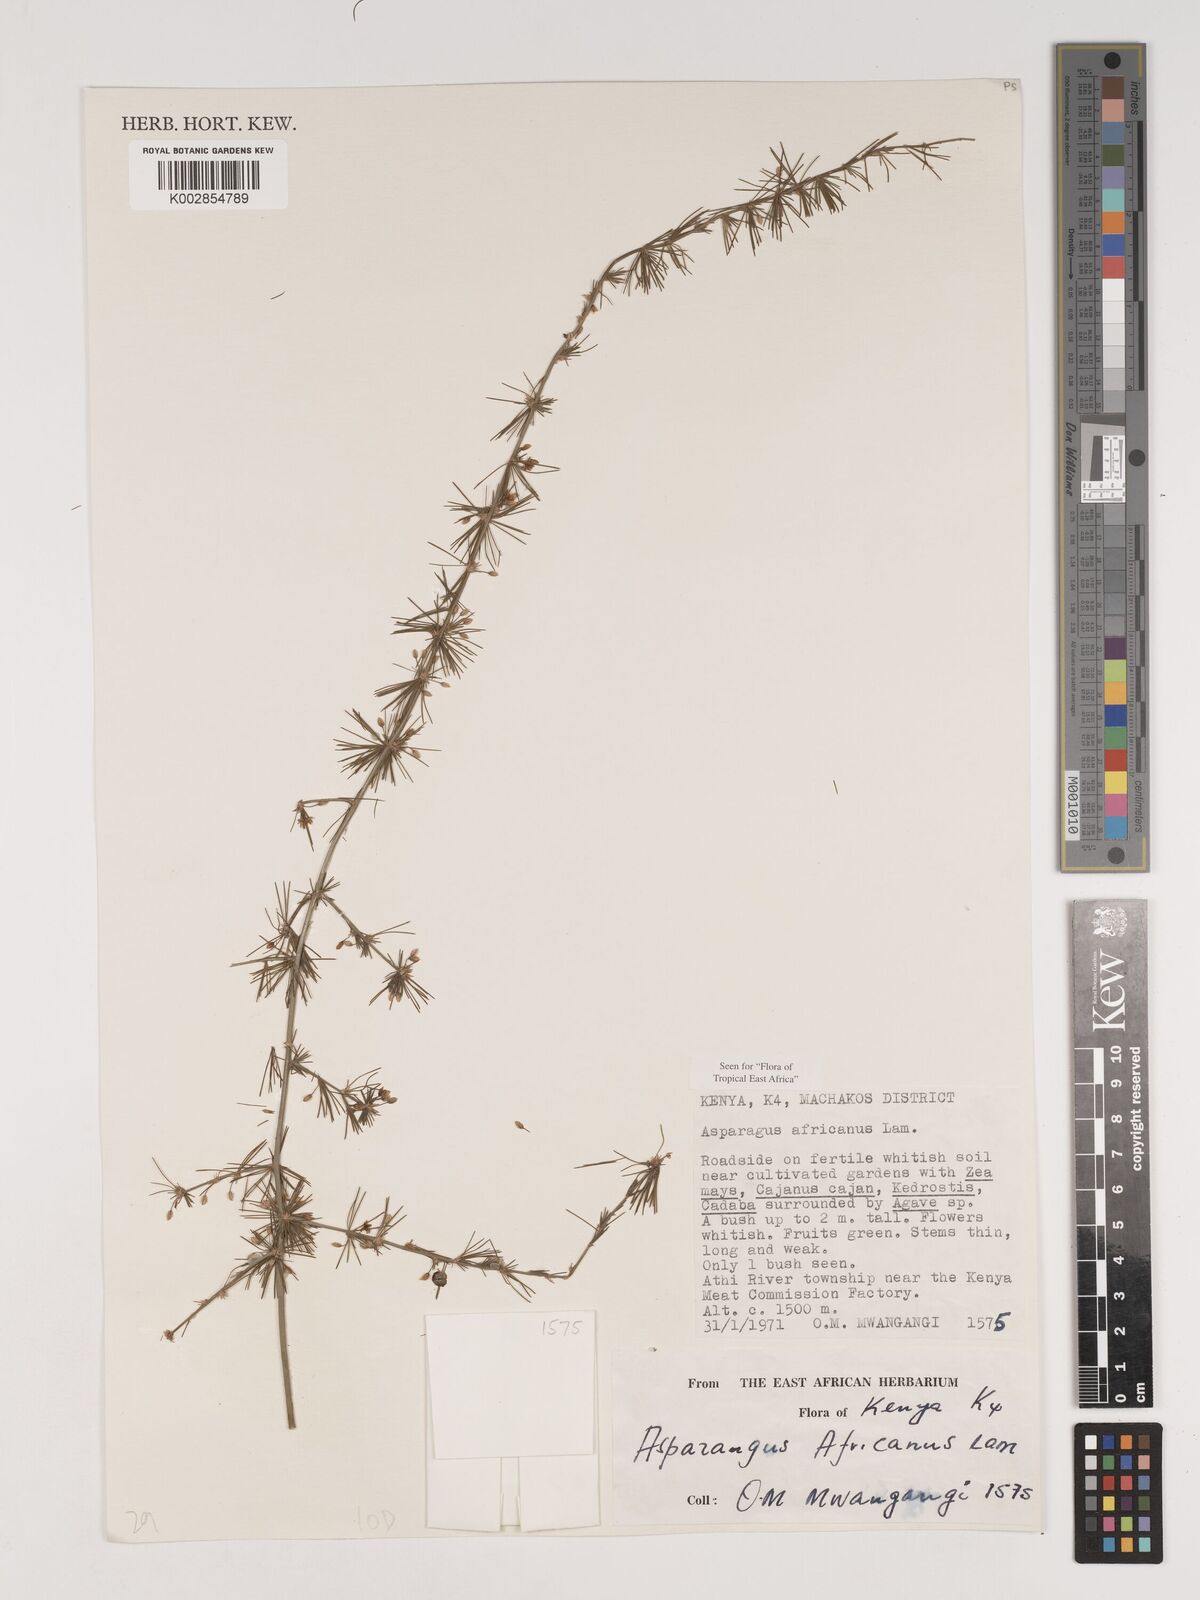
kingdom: Plantae
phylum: Tracheophyta
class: Liliopsida
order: Asparagales
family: Asparagaceae
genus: Asparagus
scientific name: Asparagus africanus
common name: Asparagus-fern
